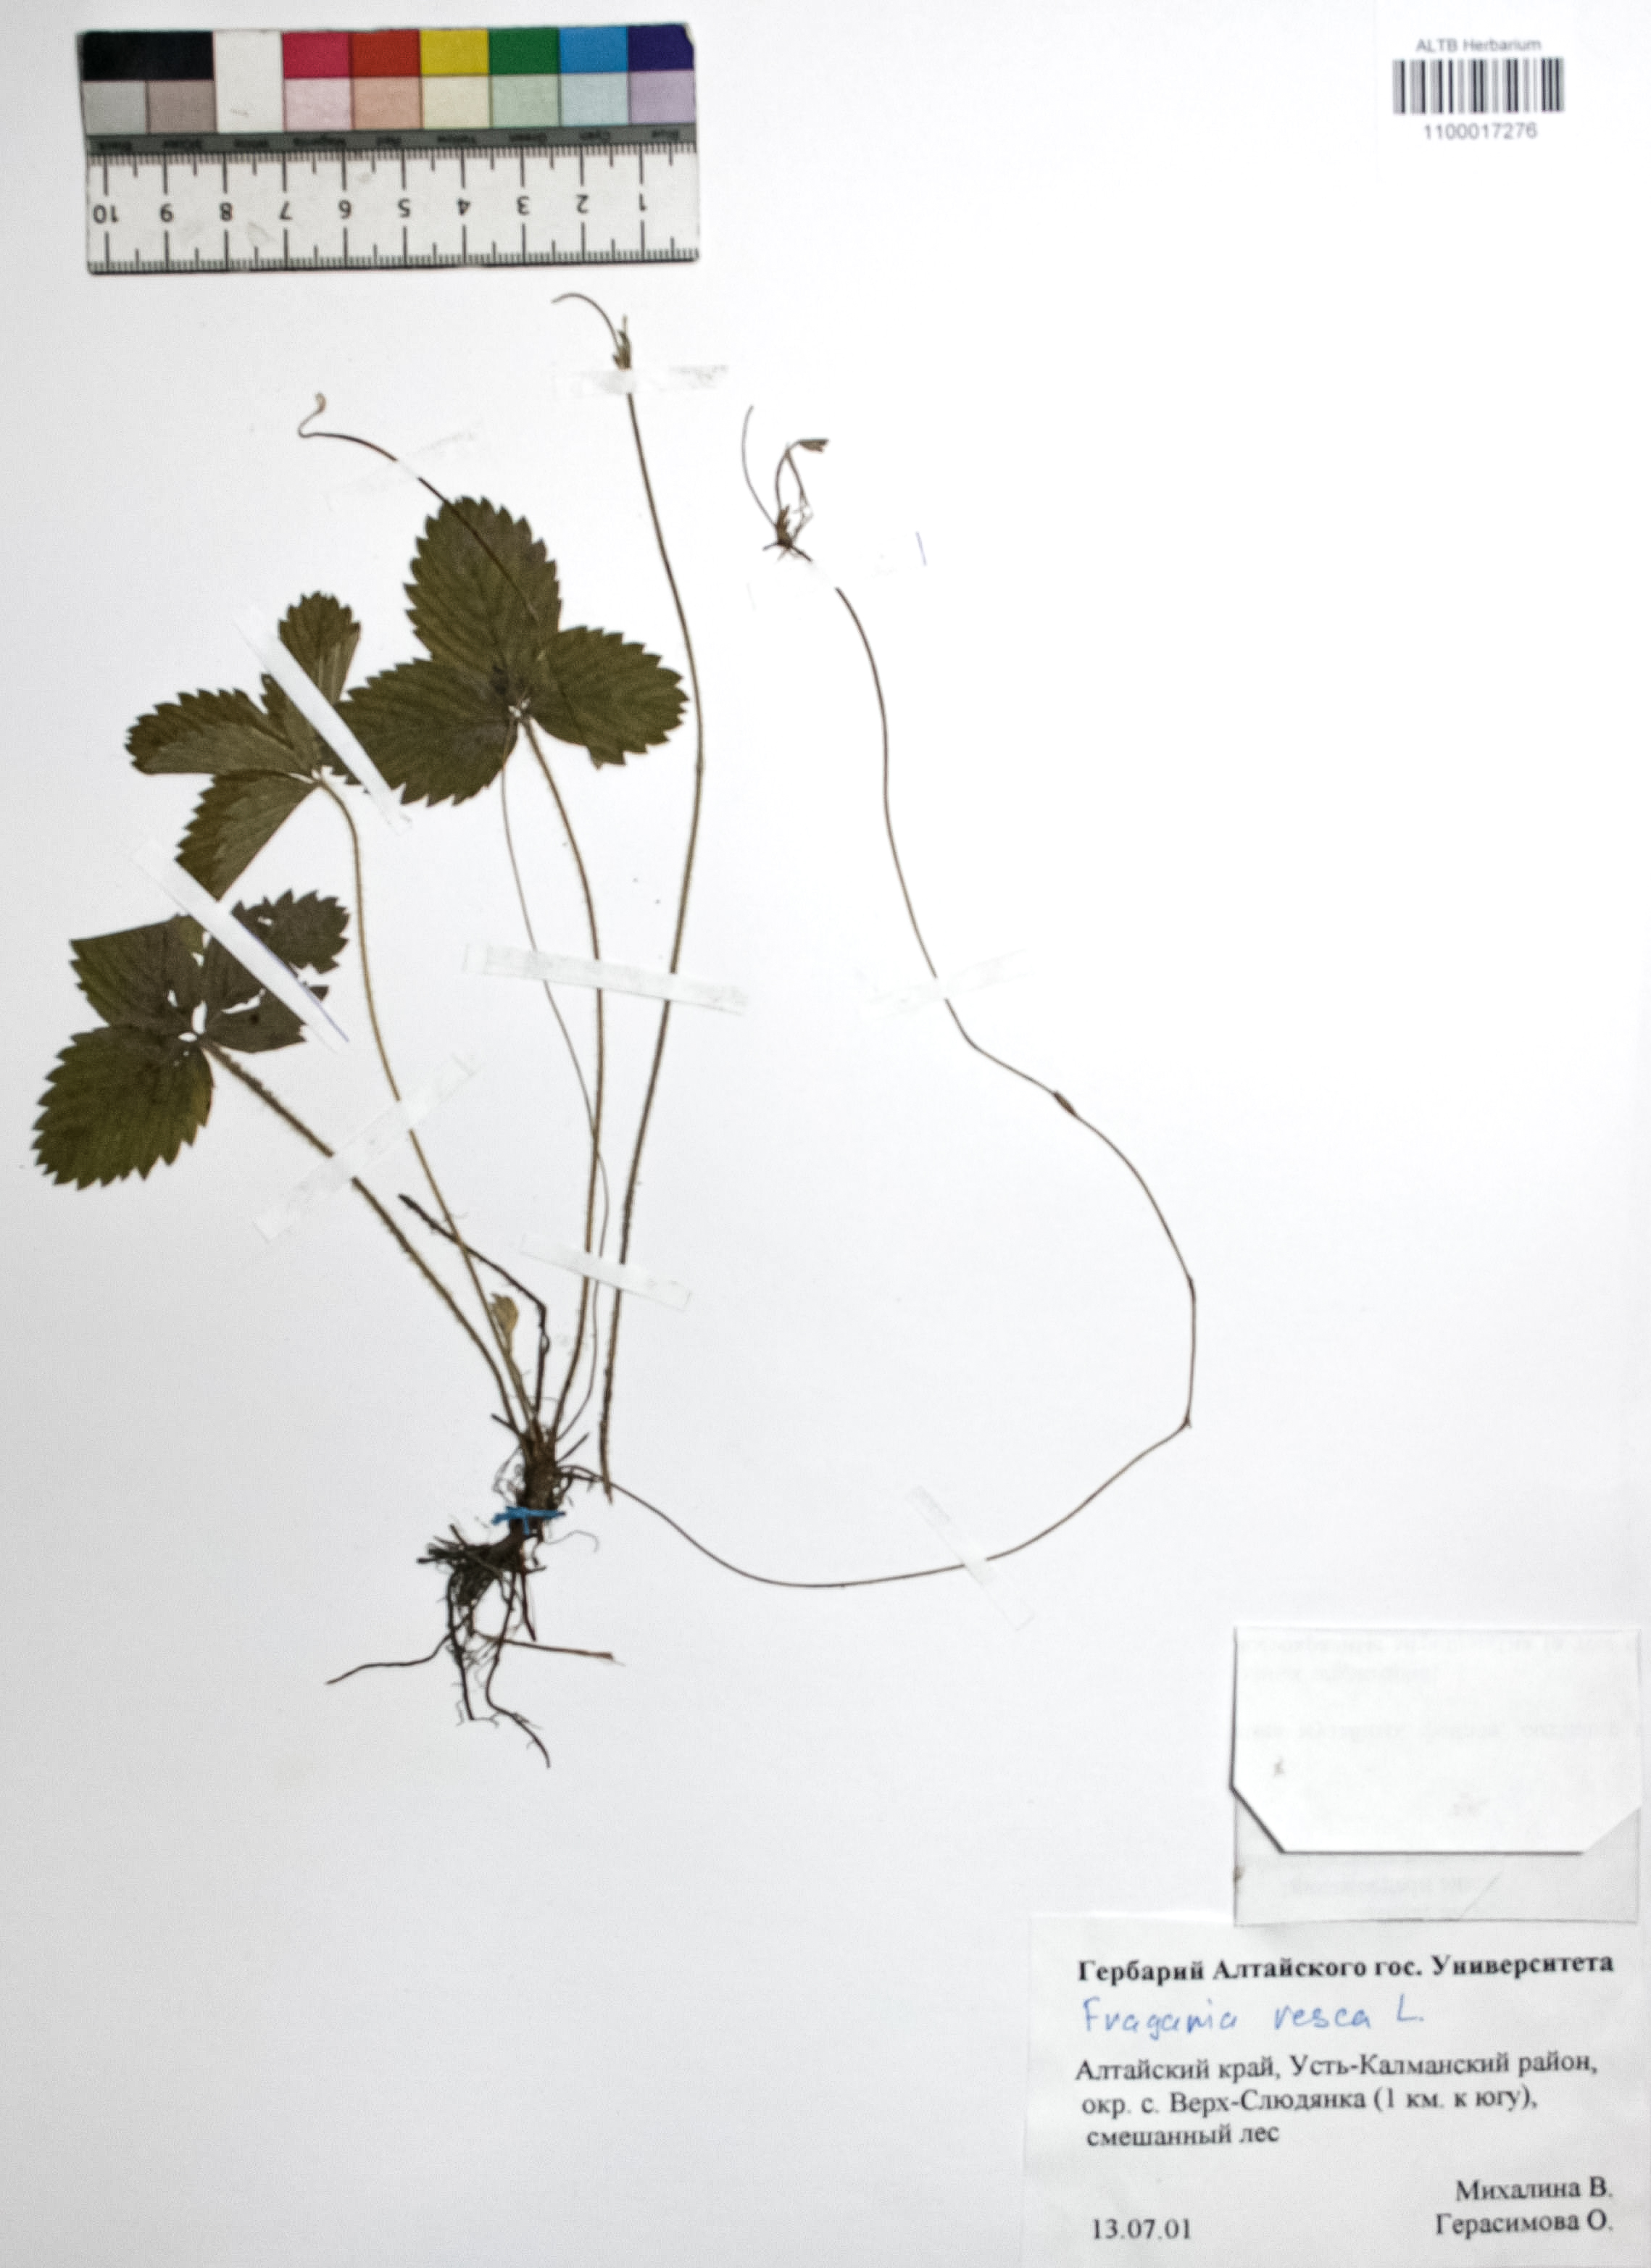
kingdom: Plantae
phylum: Tracheophyta
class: Magnoliopsida
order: Rosales
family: Rosaceae
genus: Fragaria
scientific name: Fragaria vesca
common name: Wild strawberry
